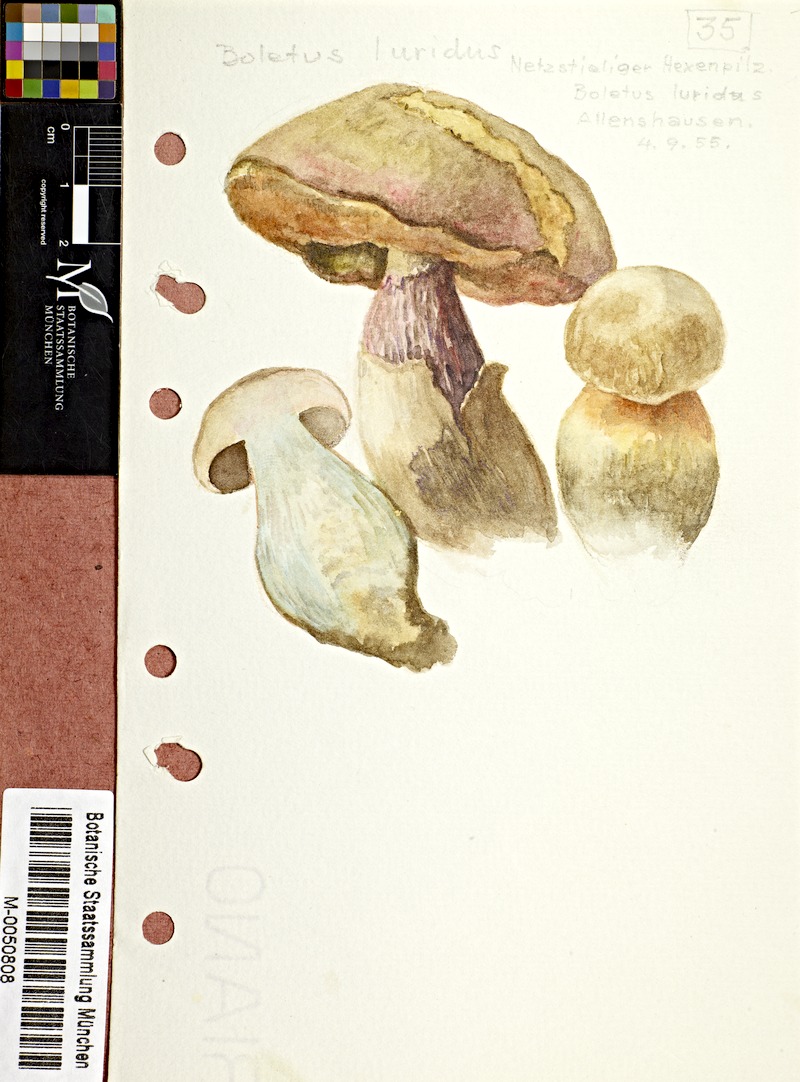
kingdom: Fungi
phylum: Basidiomycota
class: Agaricomycetes
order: Boletales
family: Boletaceae
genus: Suillellus
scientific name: Suillellus luridus
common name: Lurid bolete
